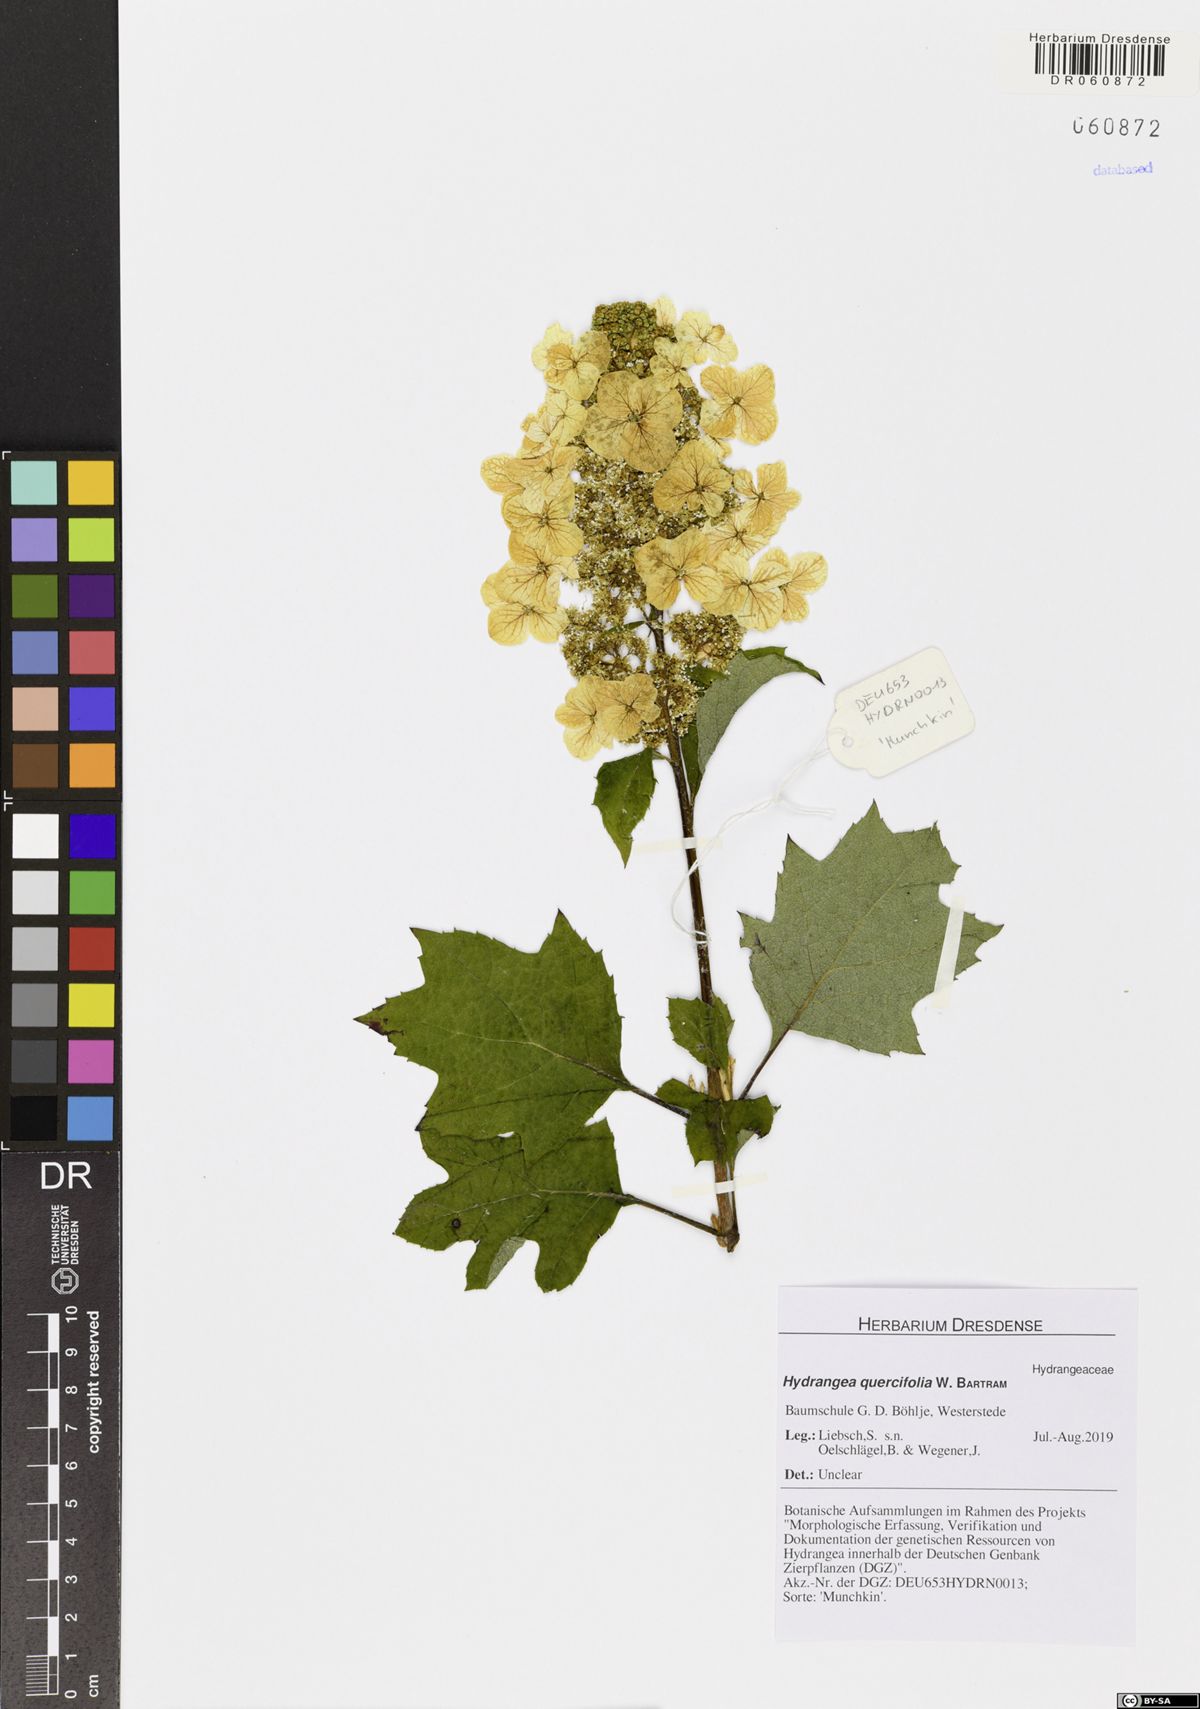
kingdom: Plantae
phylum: Tracheophyta
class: Magnoliopsida
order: Cornales
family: Hydrangeaceae
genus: Hydrangea
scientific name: Hydrangea quercifolia
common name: Oak-leaf hydrangea
